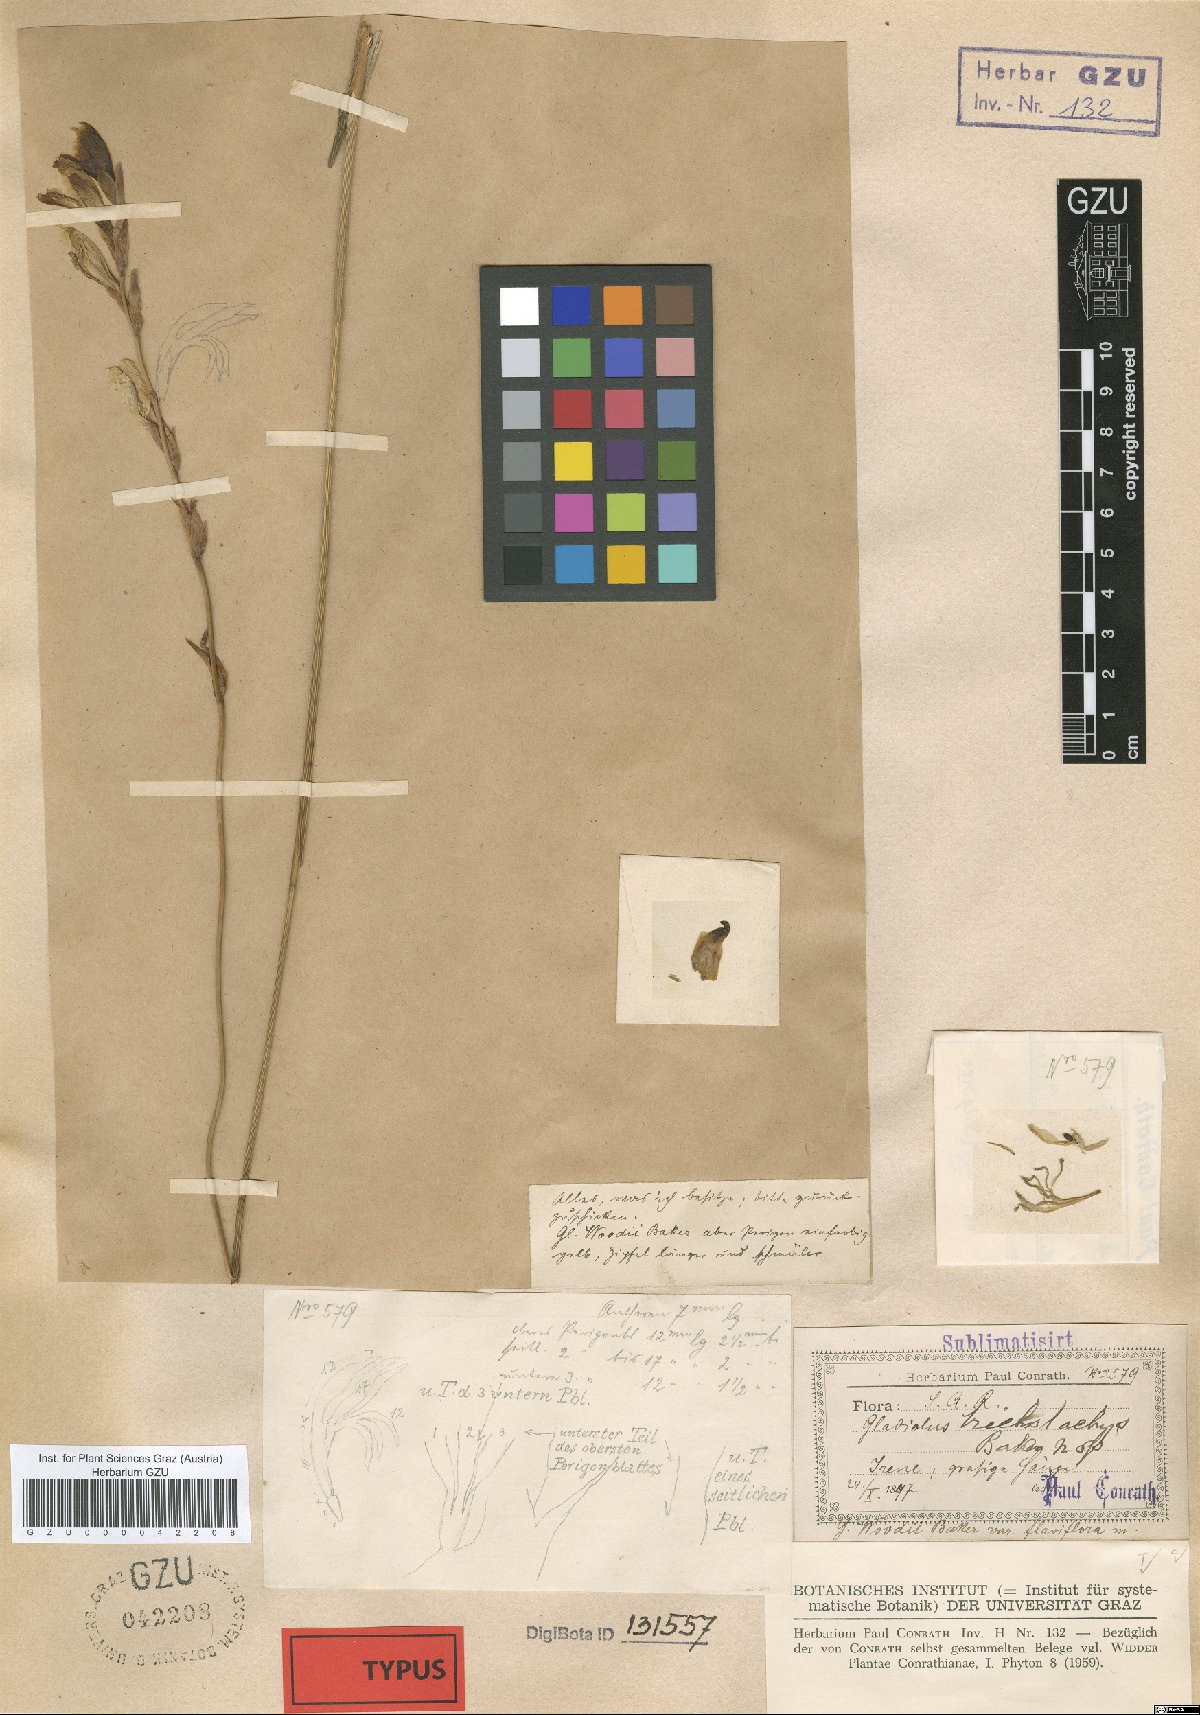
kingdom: Plantae
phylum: Tracheophyta
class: Liliopsida
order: Asparagales
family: Iridaceae
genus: Gladiolus
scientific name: Gladiolus woodii
